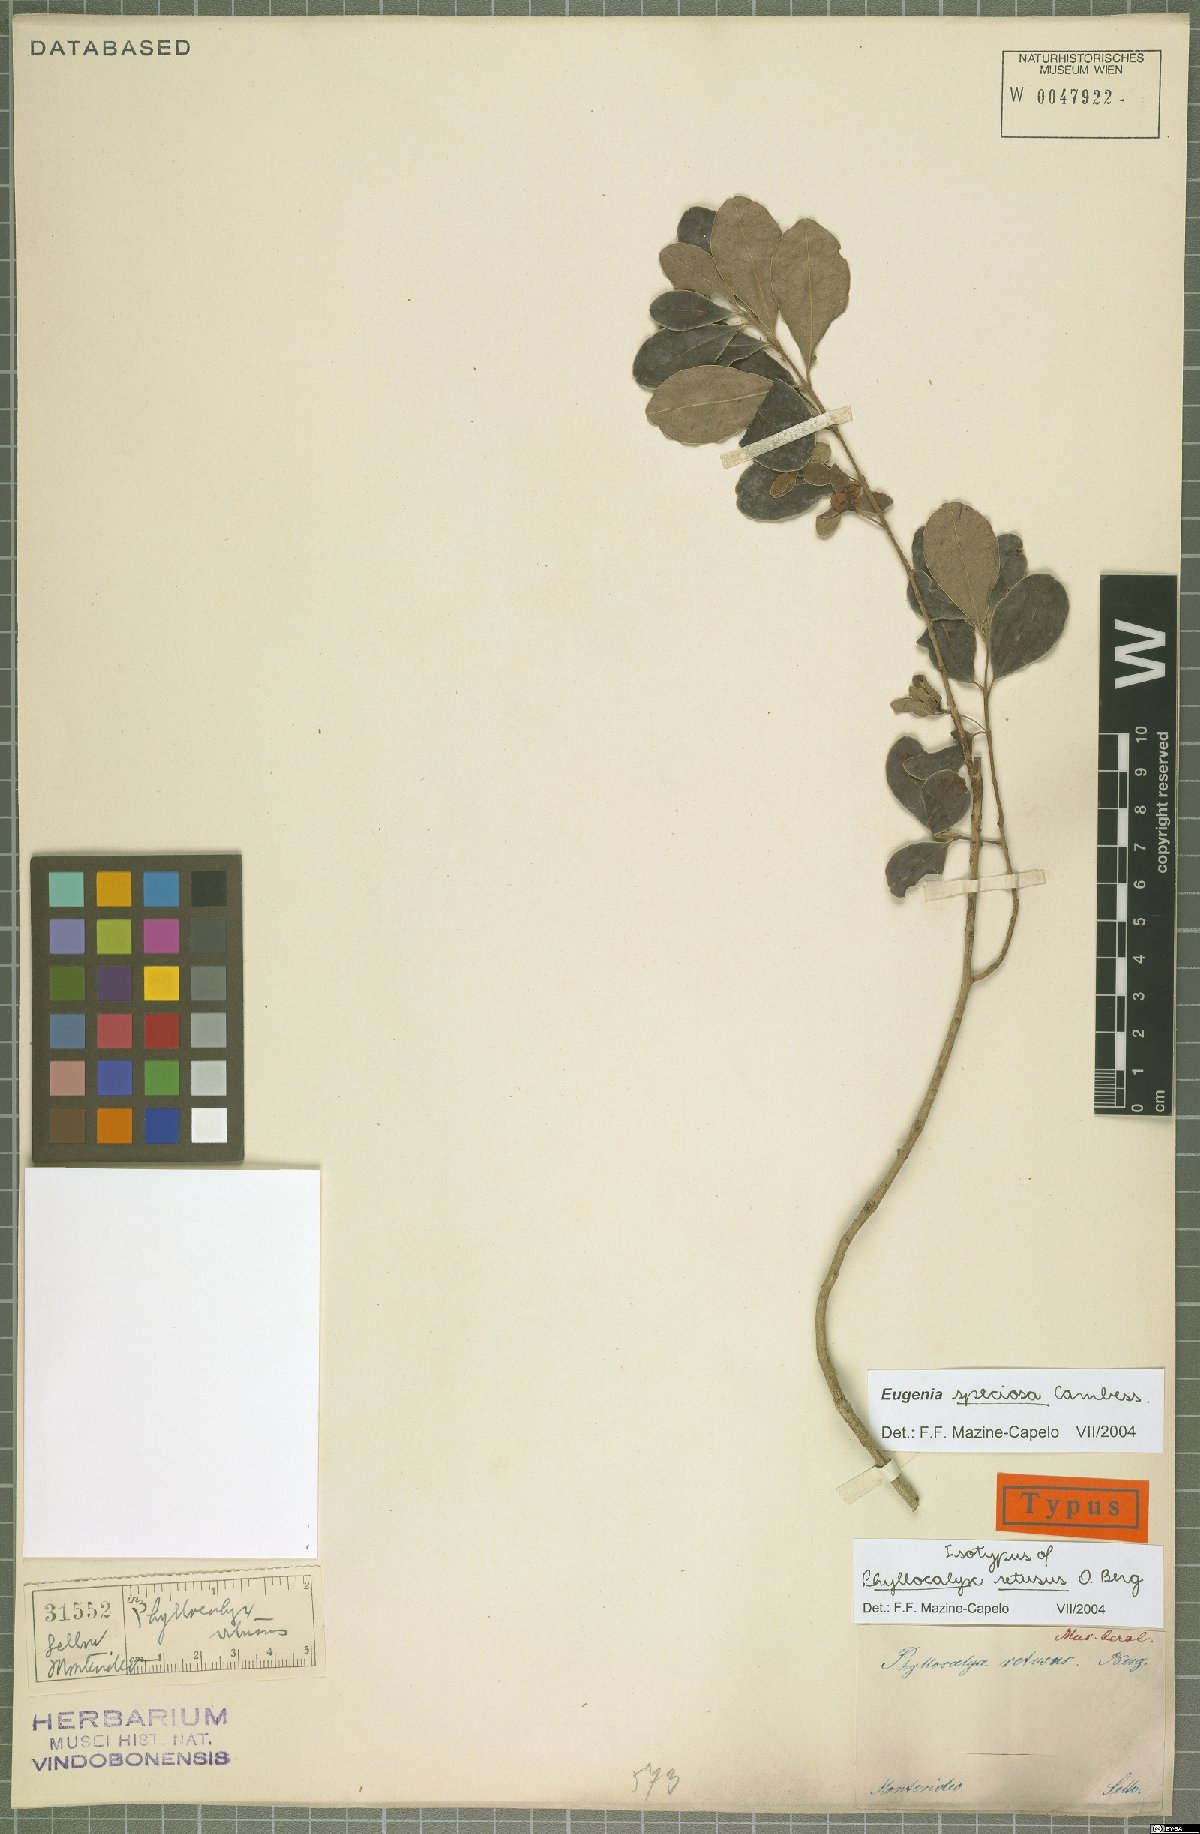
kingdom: Plantae
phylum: Tracheophyta
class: Magnoliopsida
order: Myrtales
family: Myrtaceae
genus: Eugenia
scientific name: Eugenia speciosa
